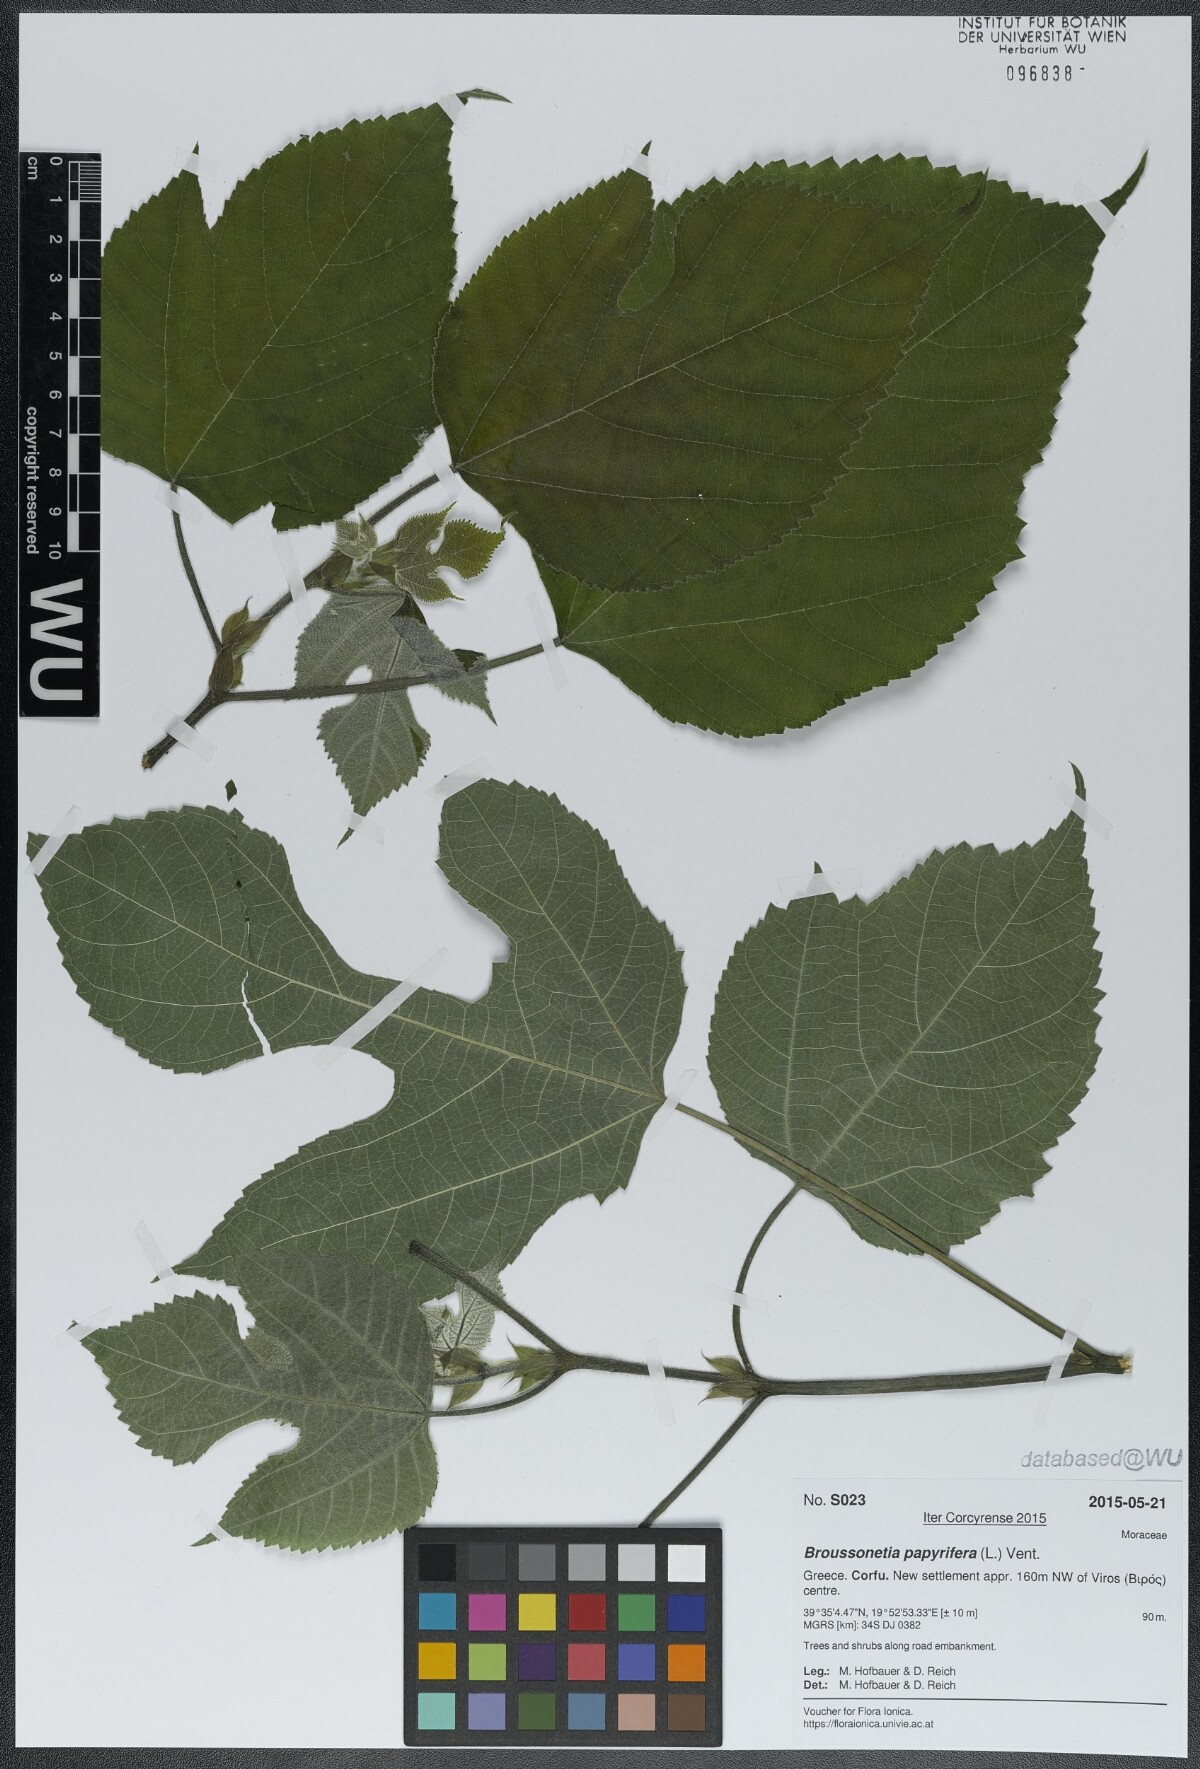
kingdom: Plantae
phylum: Tracheophyta
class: Magnoliopsida
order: Rosales
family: Moraceae
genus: Broussonetia
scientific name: Broussonetia papyrifera
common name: Paper mulberry
